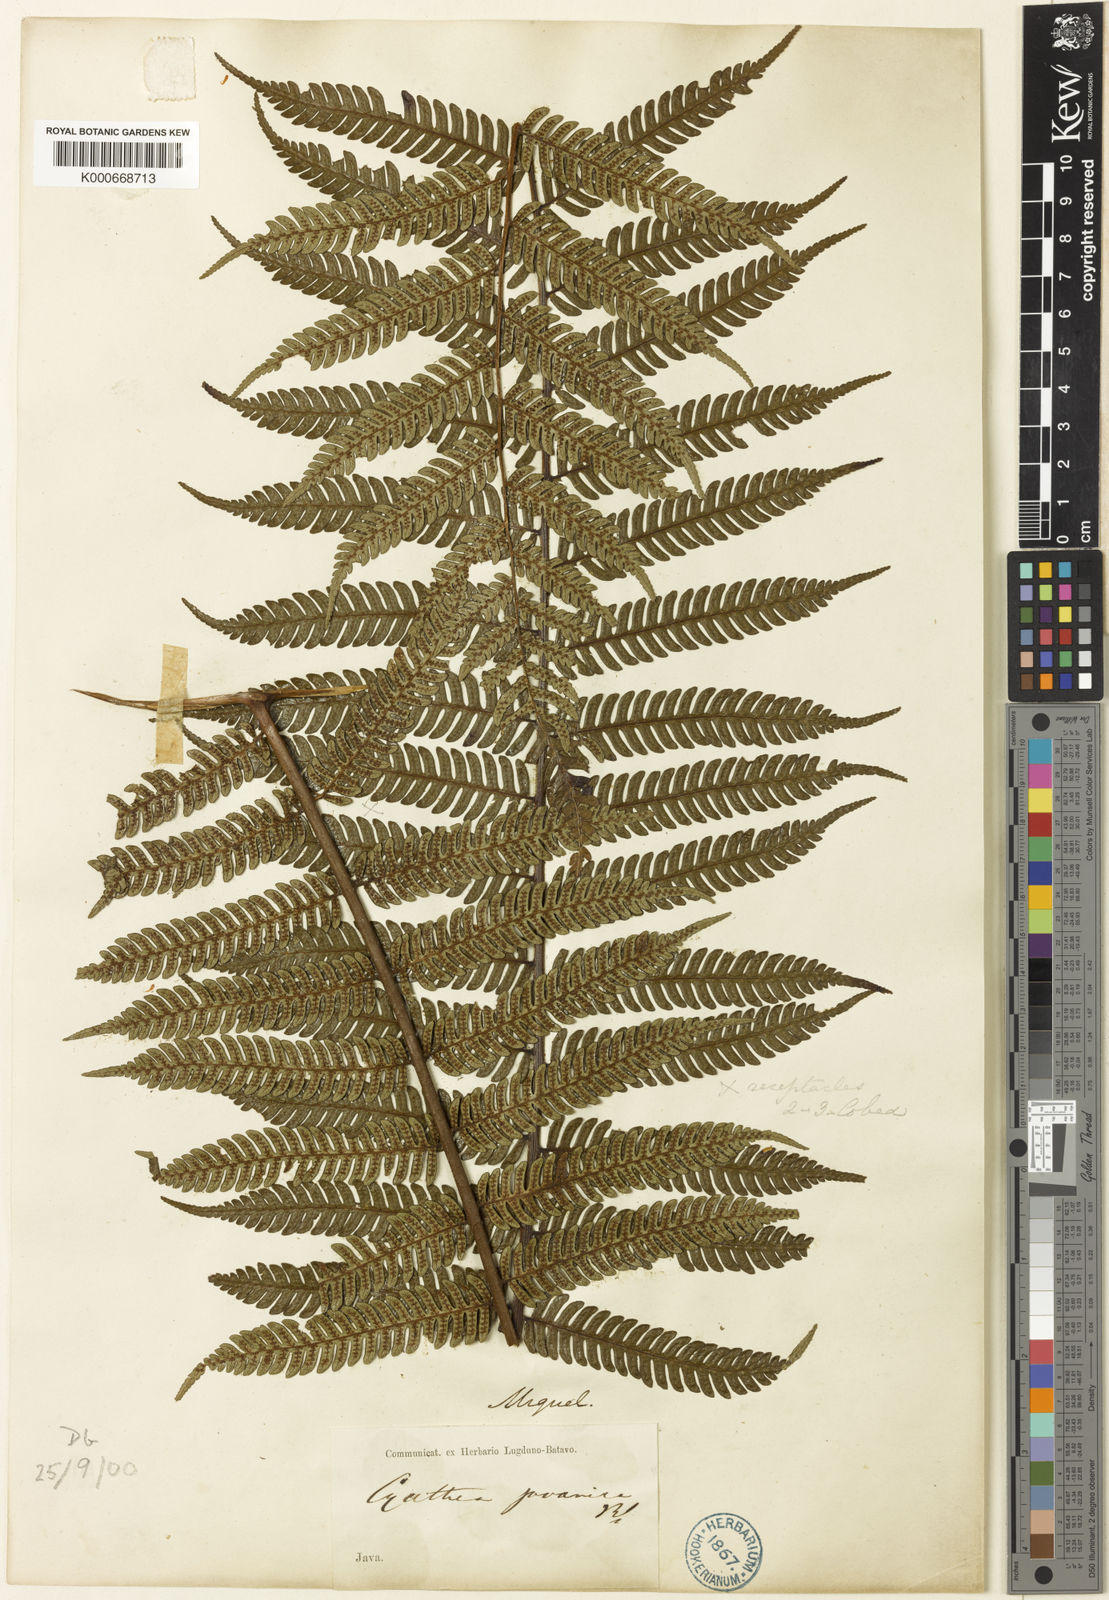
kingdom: Plantae
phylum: Tracheophyta
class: Polypodiopsida
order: Cyatheales
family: Cyatheaceae
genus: Alsophila
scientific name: Alsophila javanica
